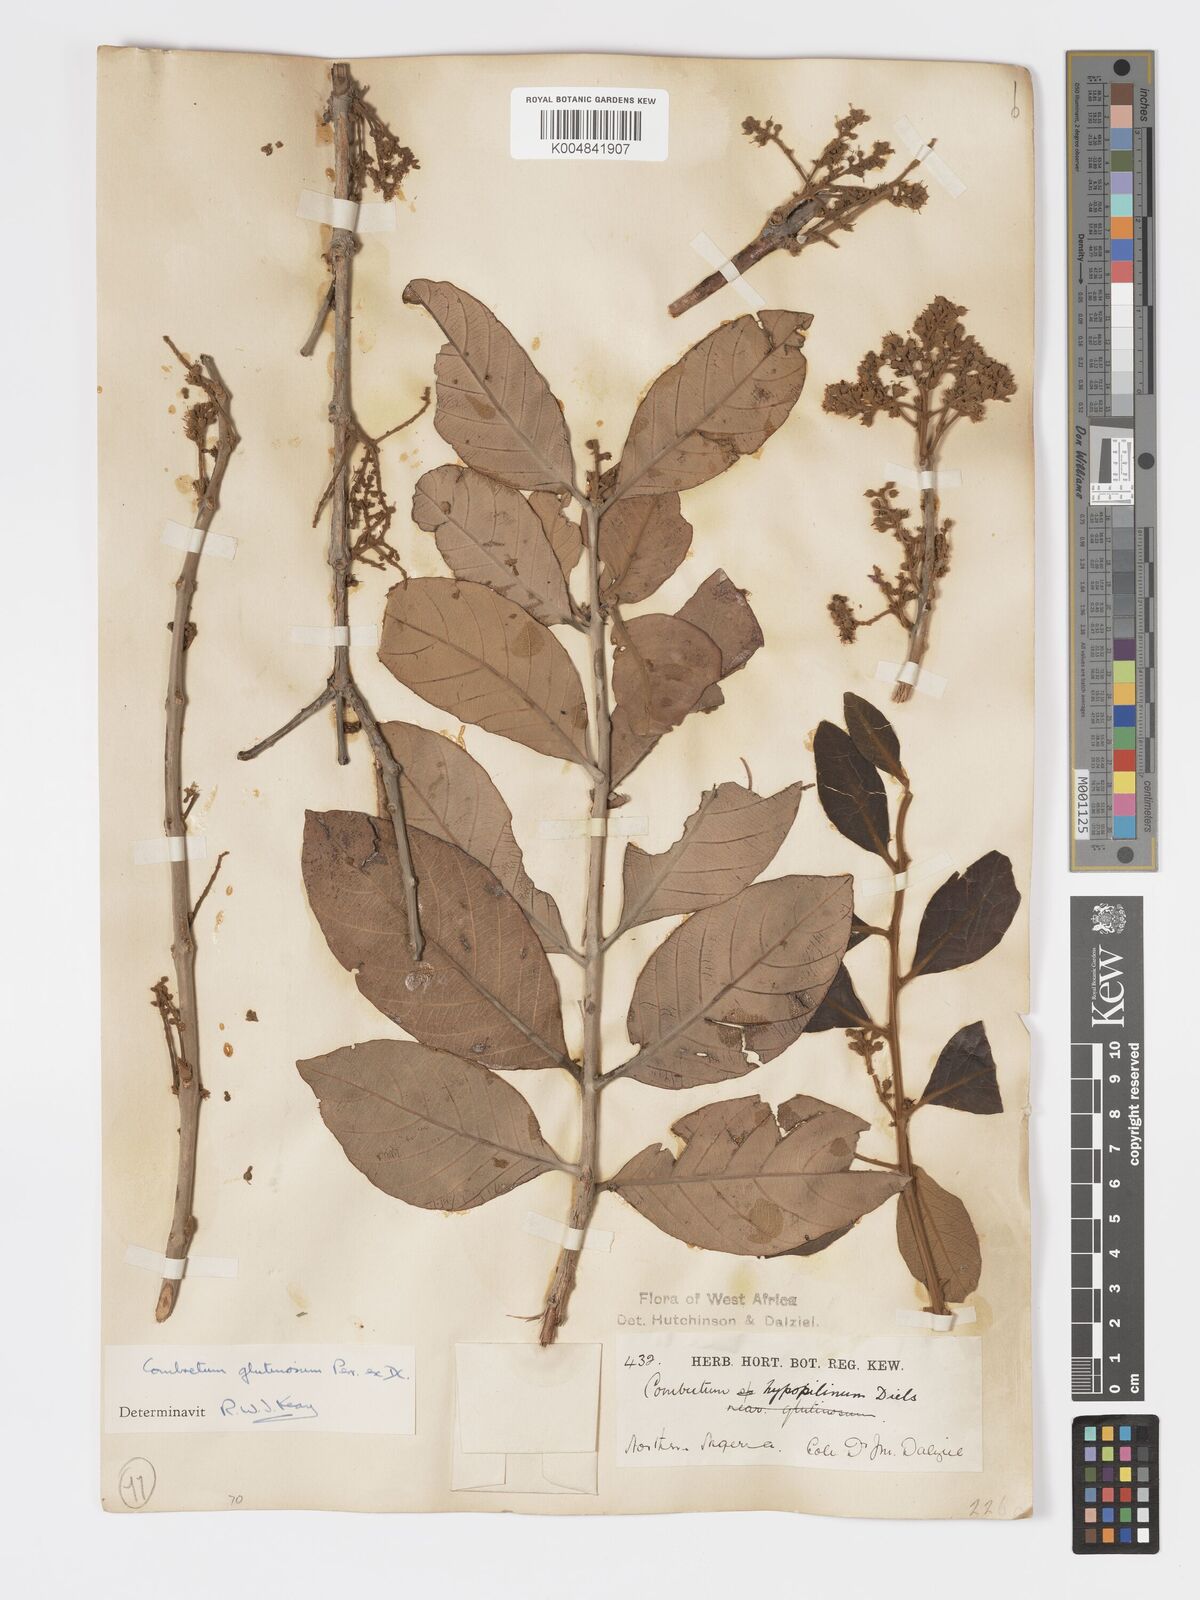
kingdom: Plantae
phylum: Tracheophyta
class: Magnoliopsida
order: Myrtales
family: Combretaceae
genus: Combretum
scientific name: Combretum
